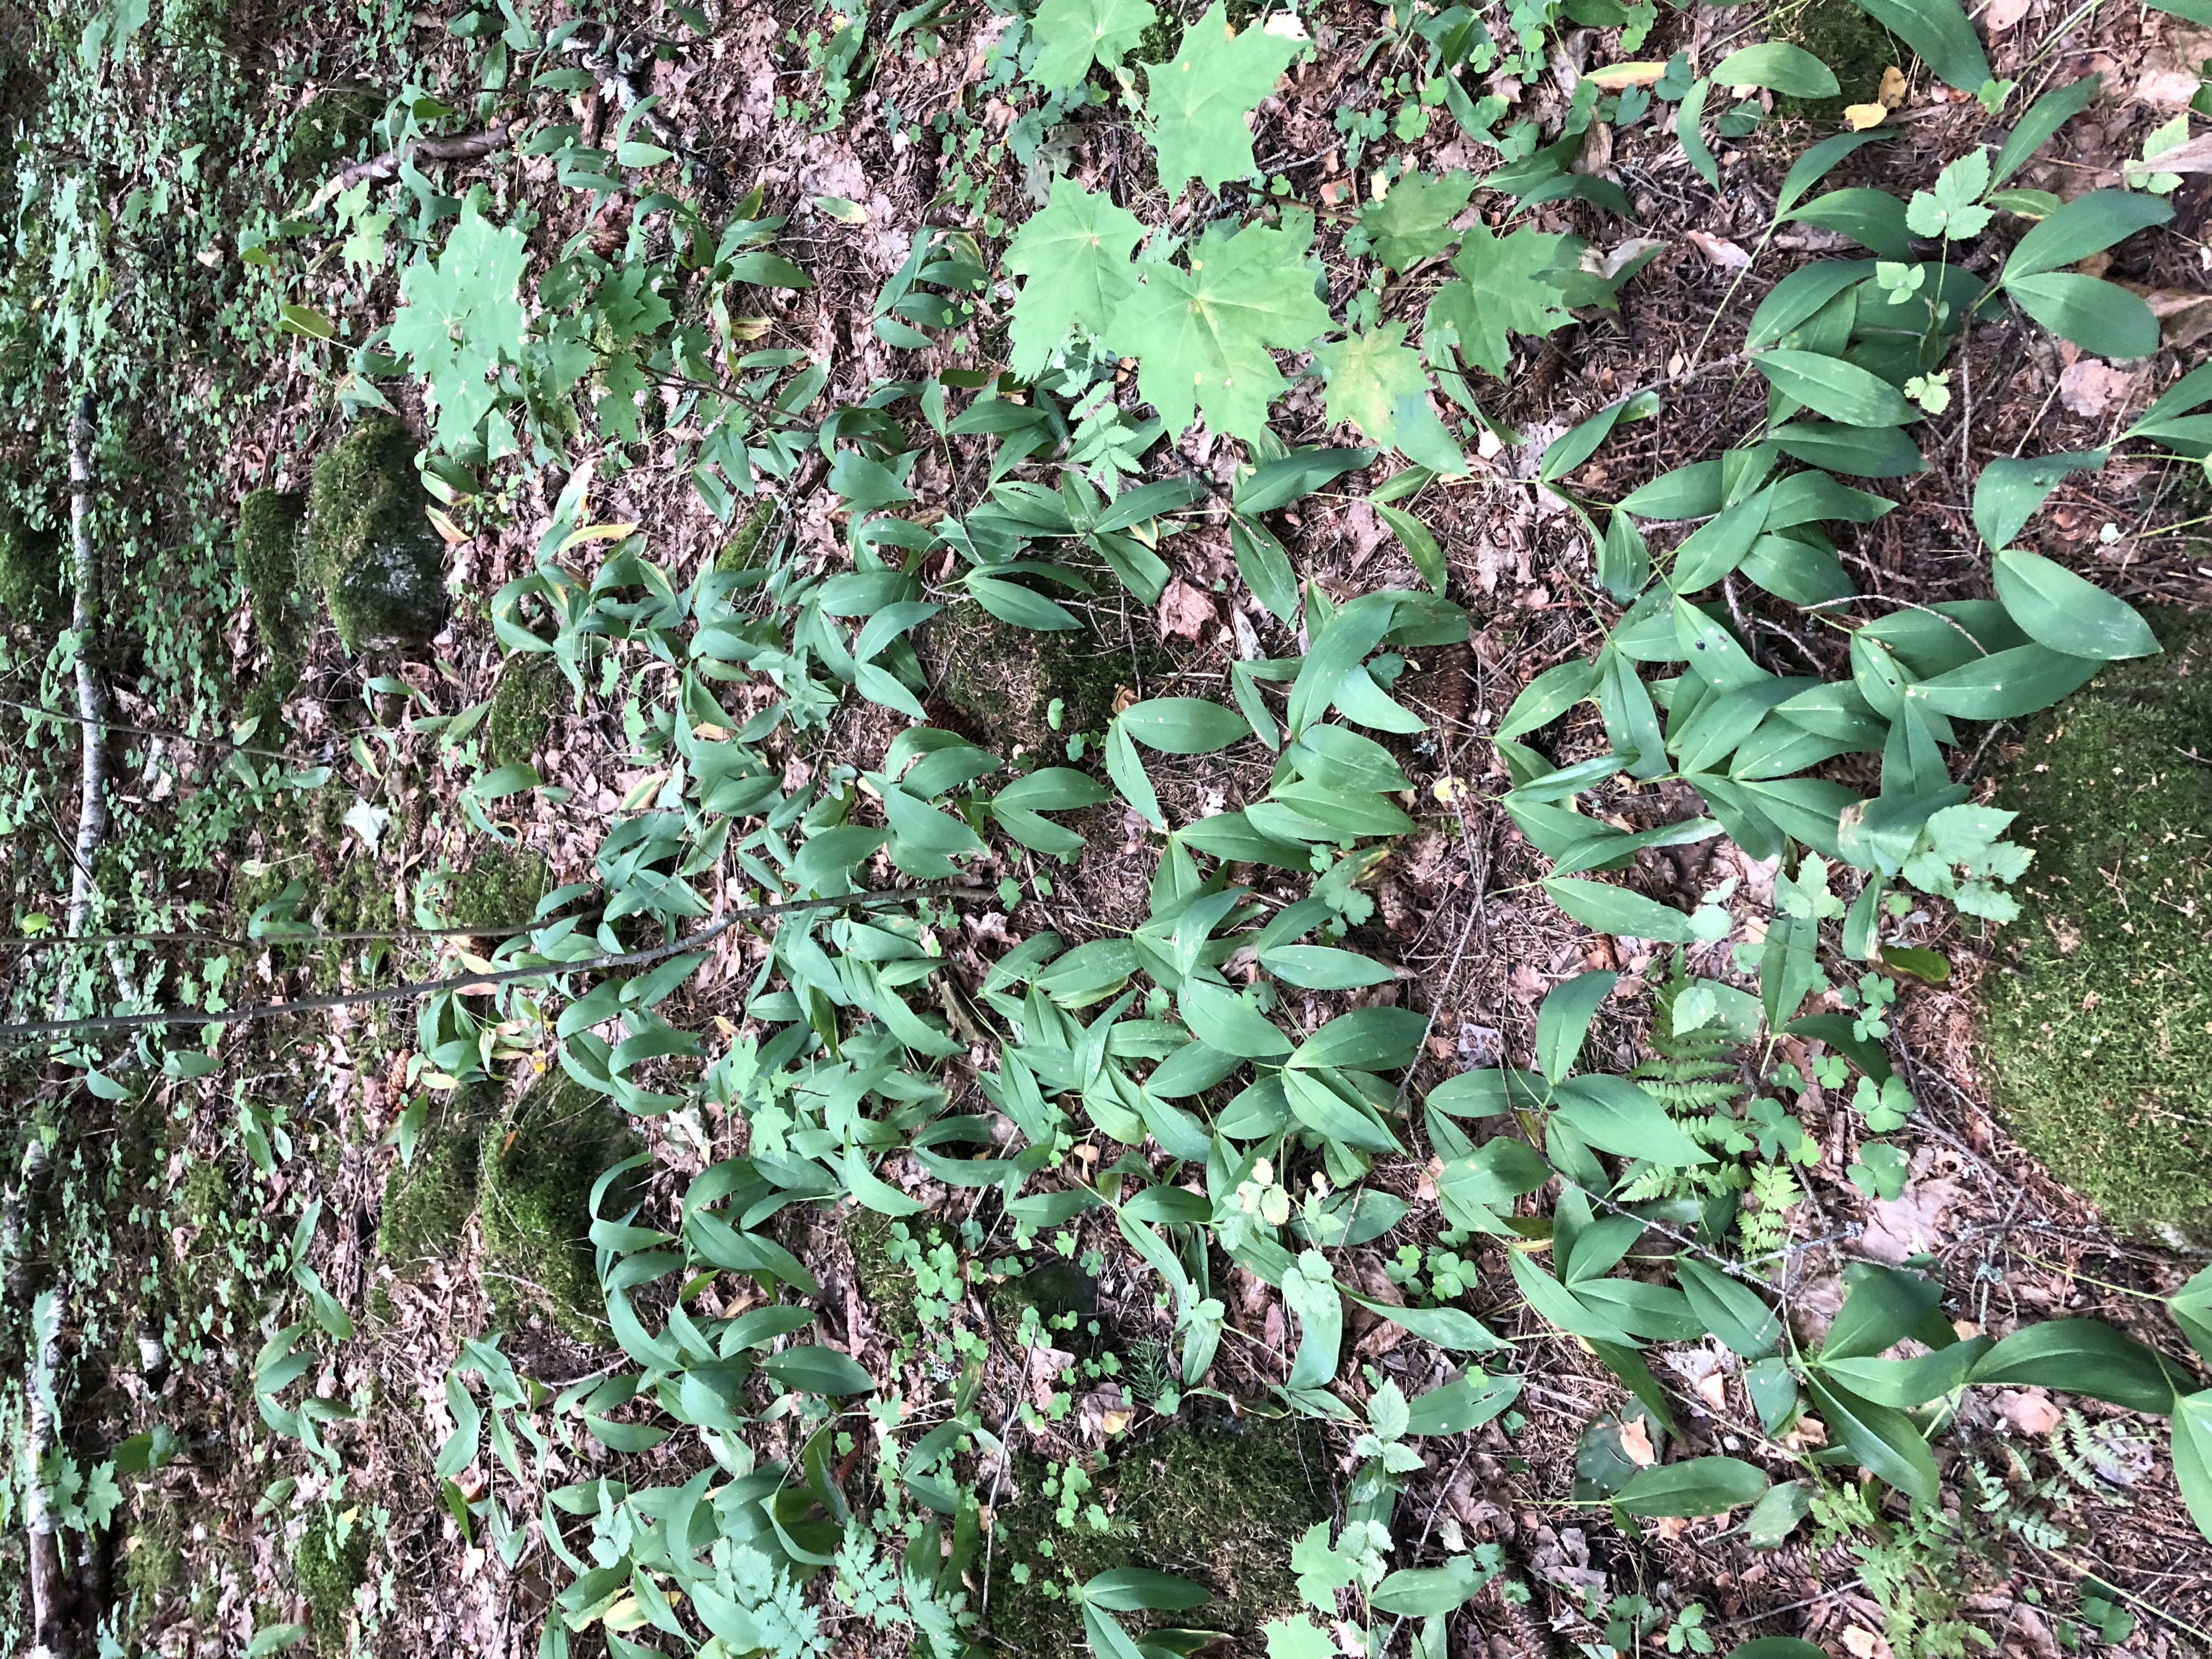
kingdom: Plantae
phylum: Tracheophyta
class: Liliopsida
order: Asparagales
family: Asparagaceae
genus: Convallaria
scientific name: Convallaria majalis
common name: Lily-of-the-valley
